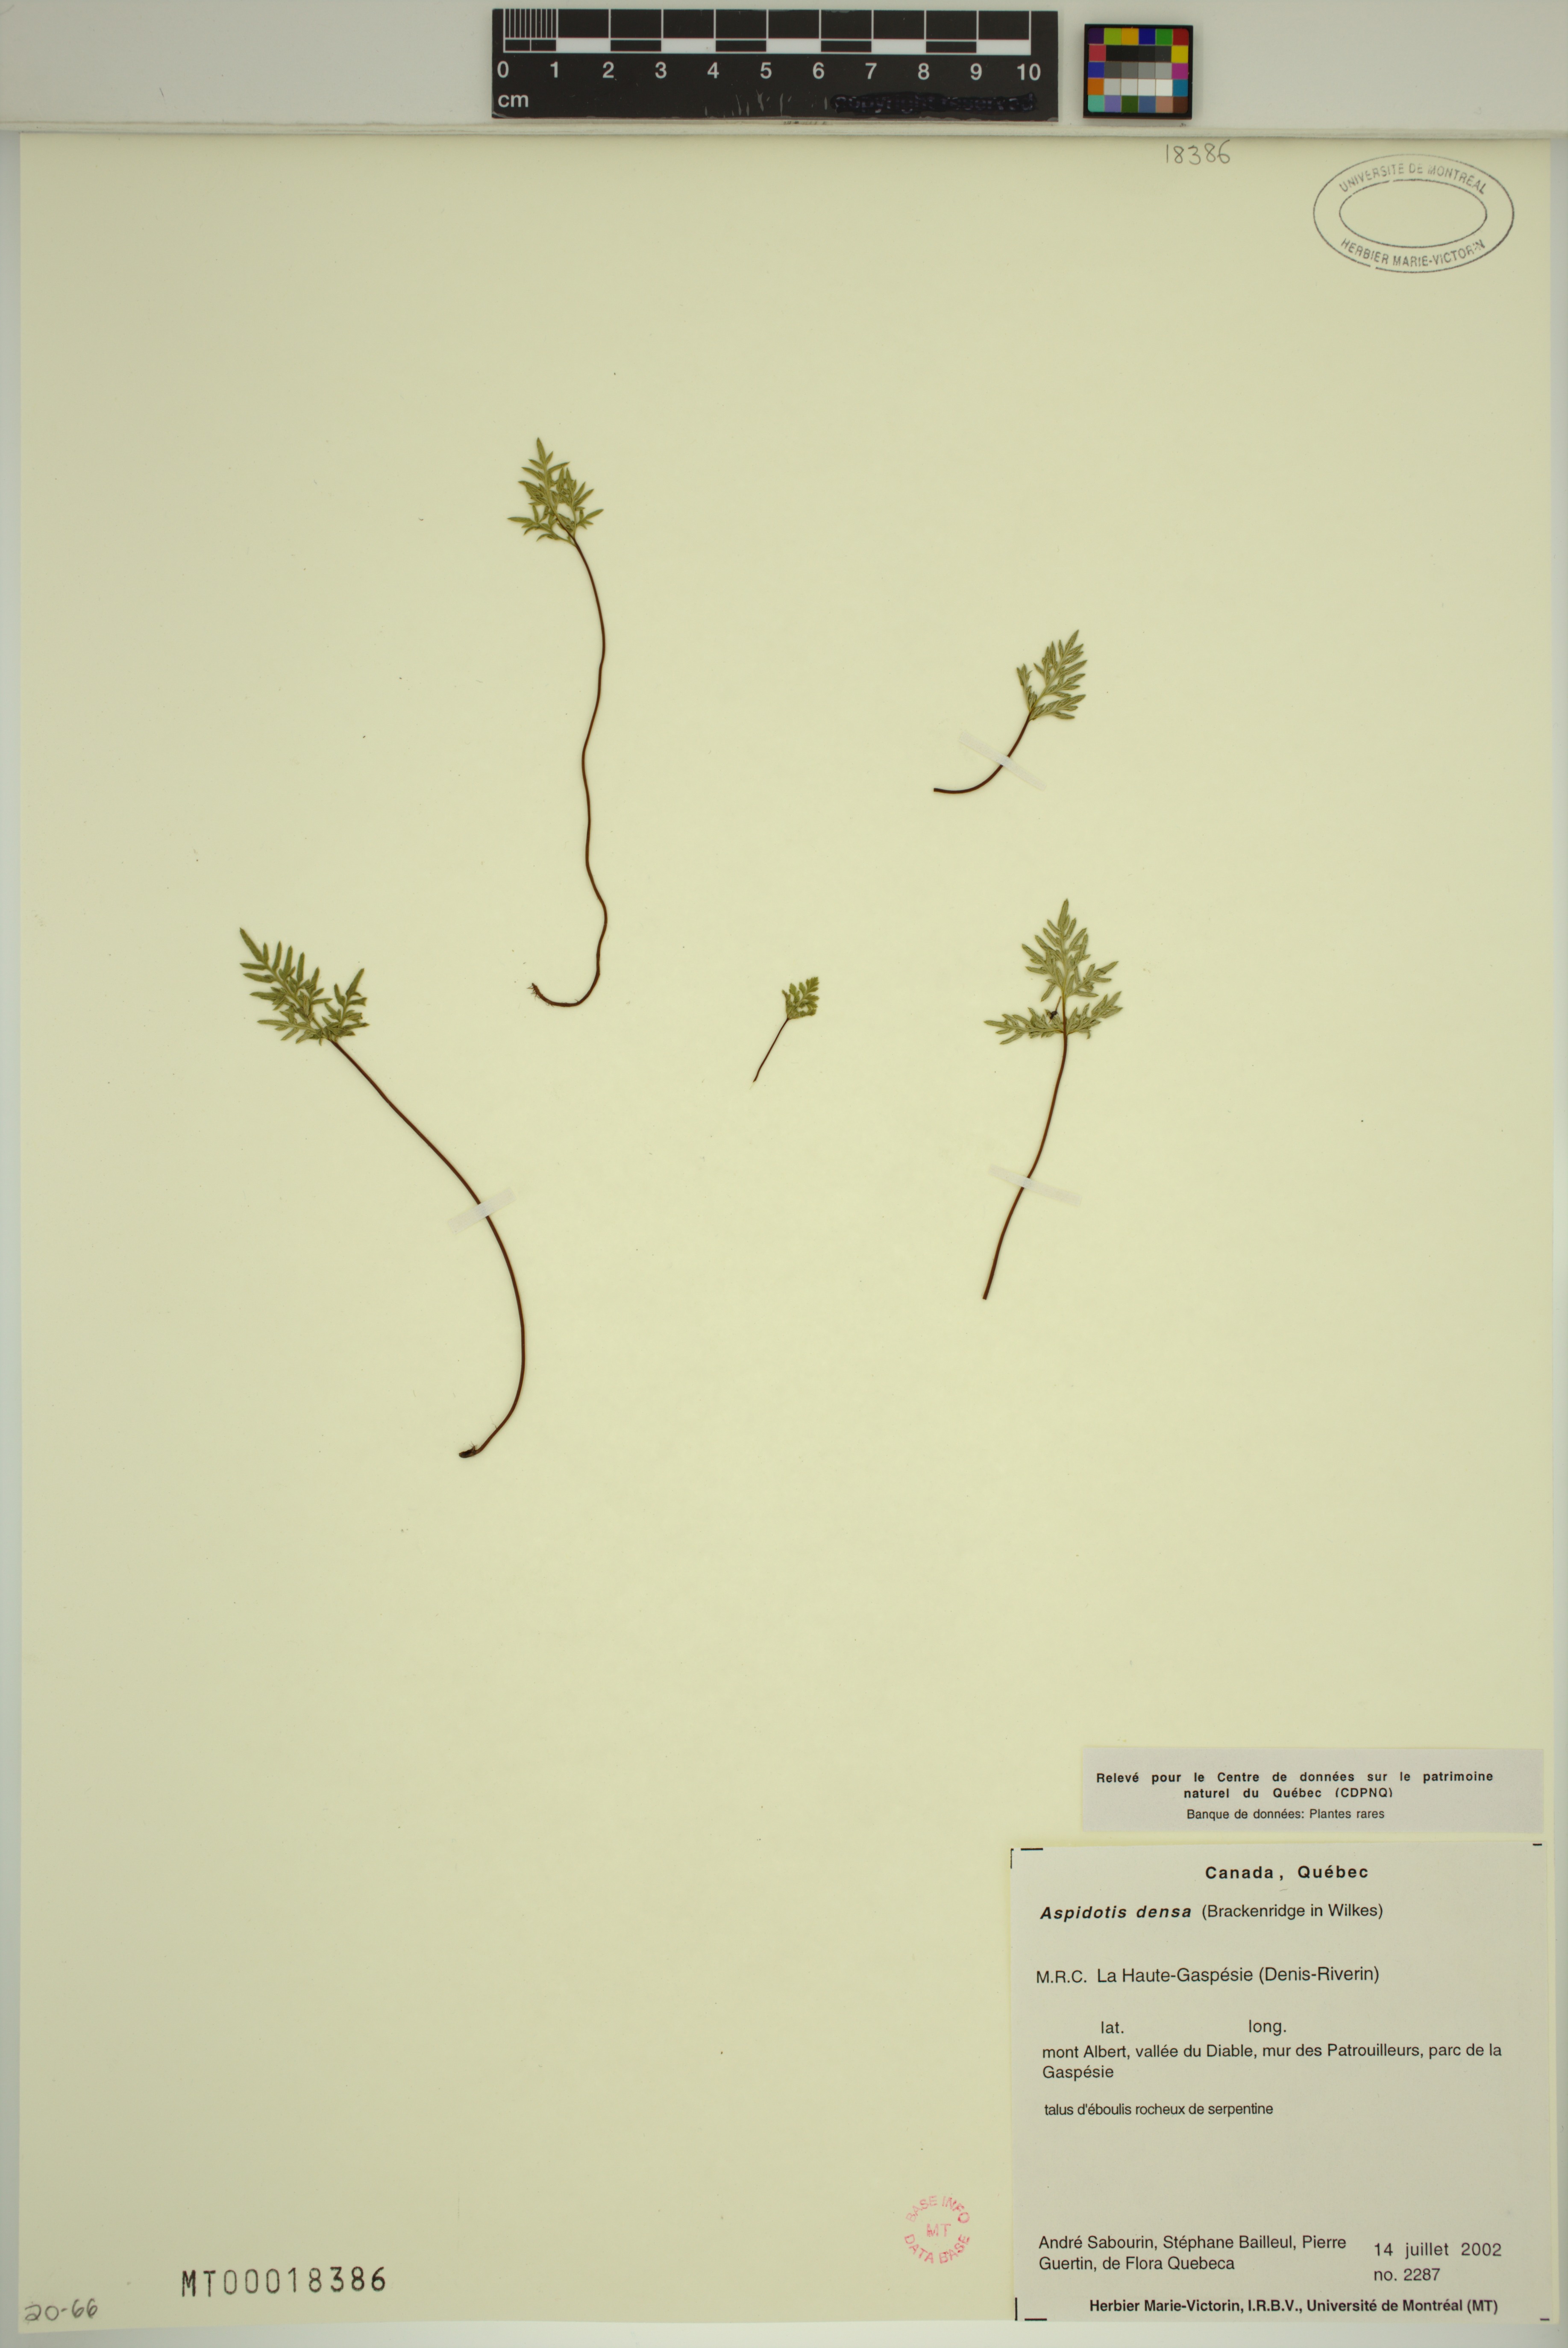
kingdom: Plantae
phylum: Tracheophyta
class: Polypodiopsida
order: Polypodiales
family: Pteridaceae
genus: Aspidotis
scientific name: Aspidotis densa
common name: Indian's dream
